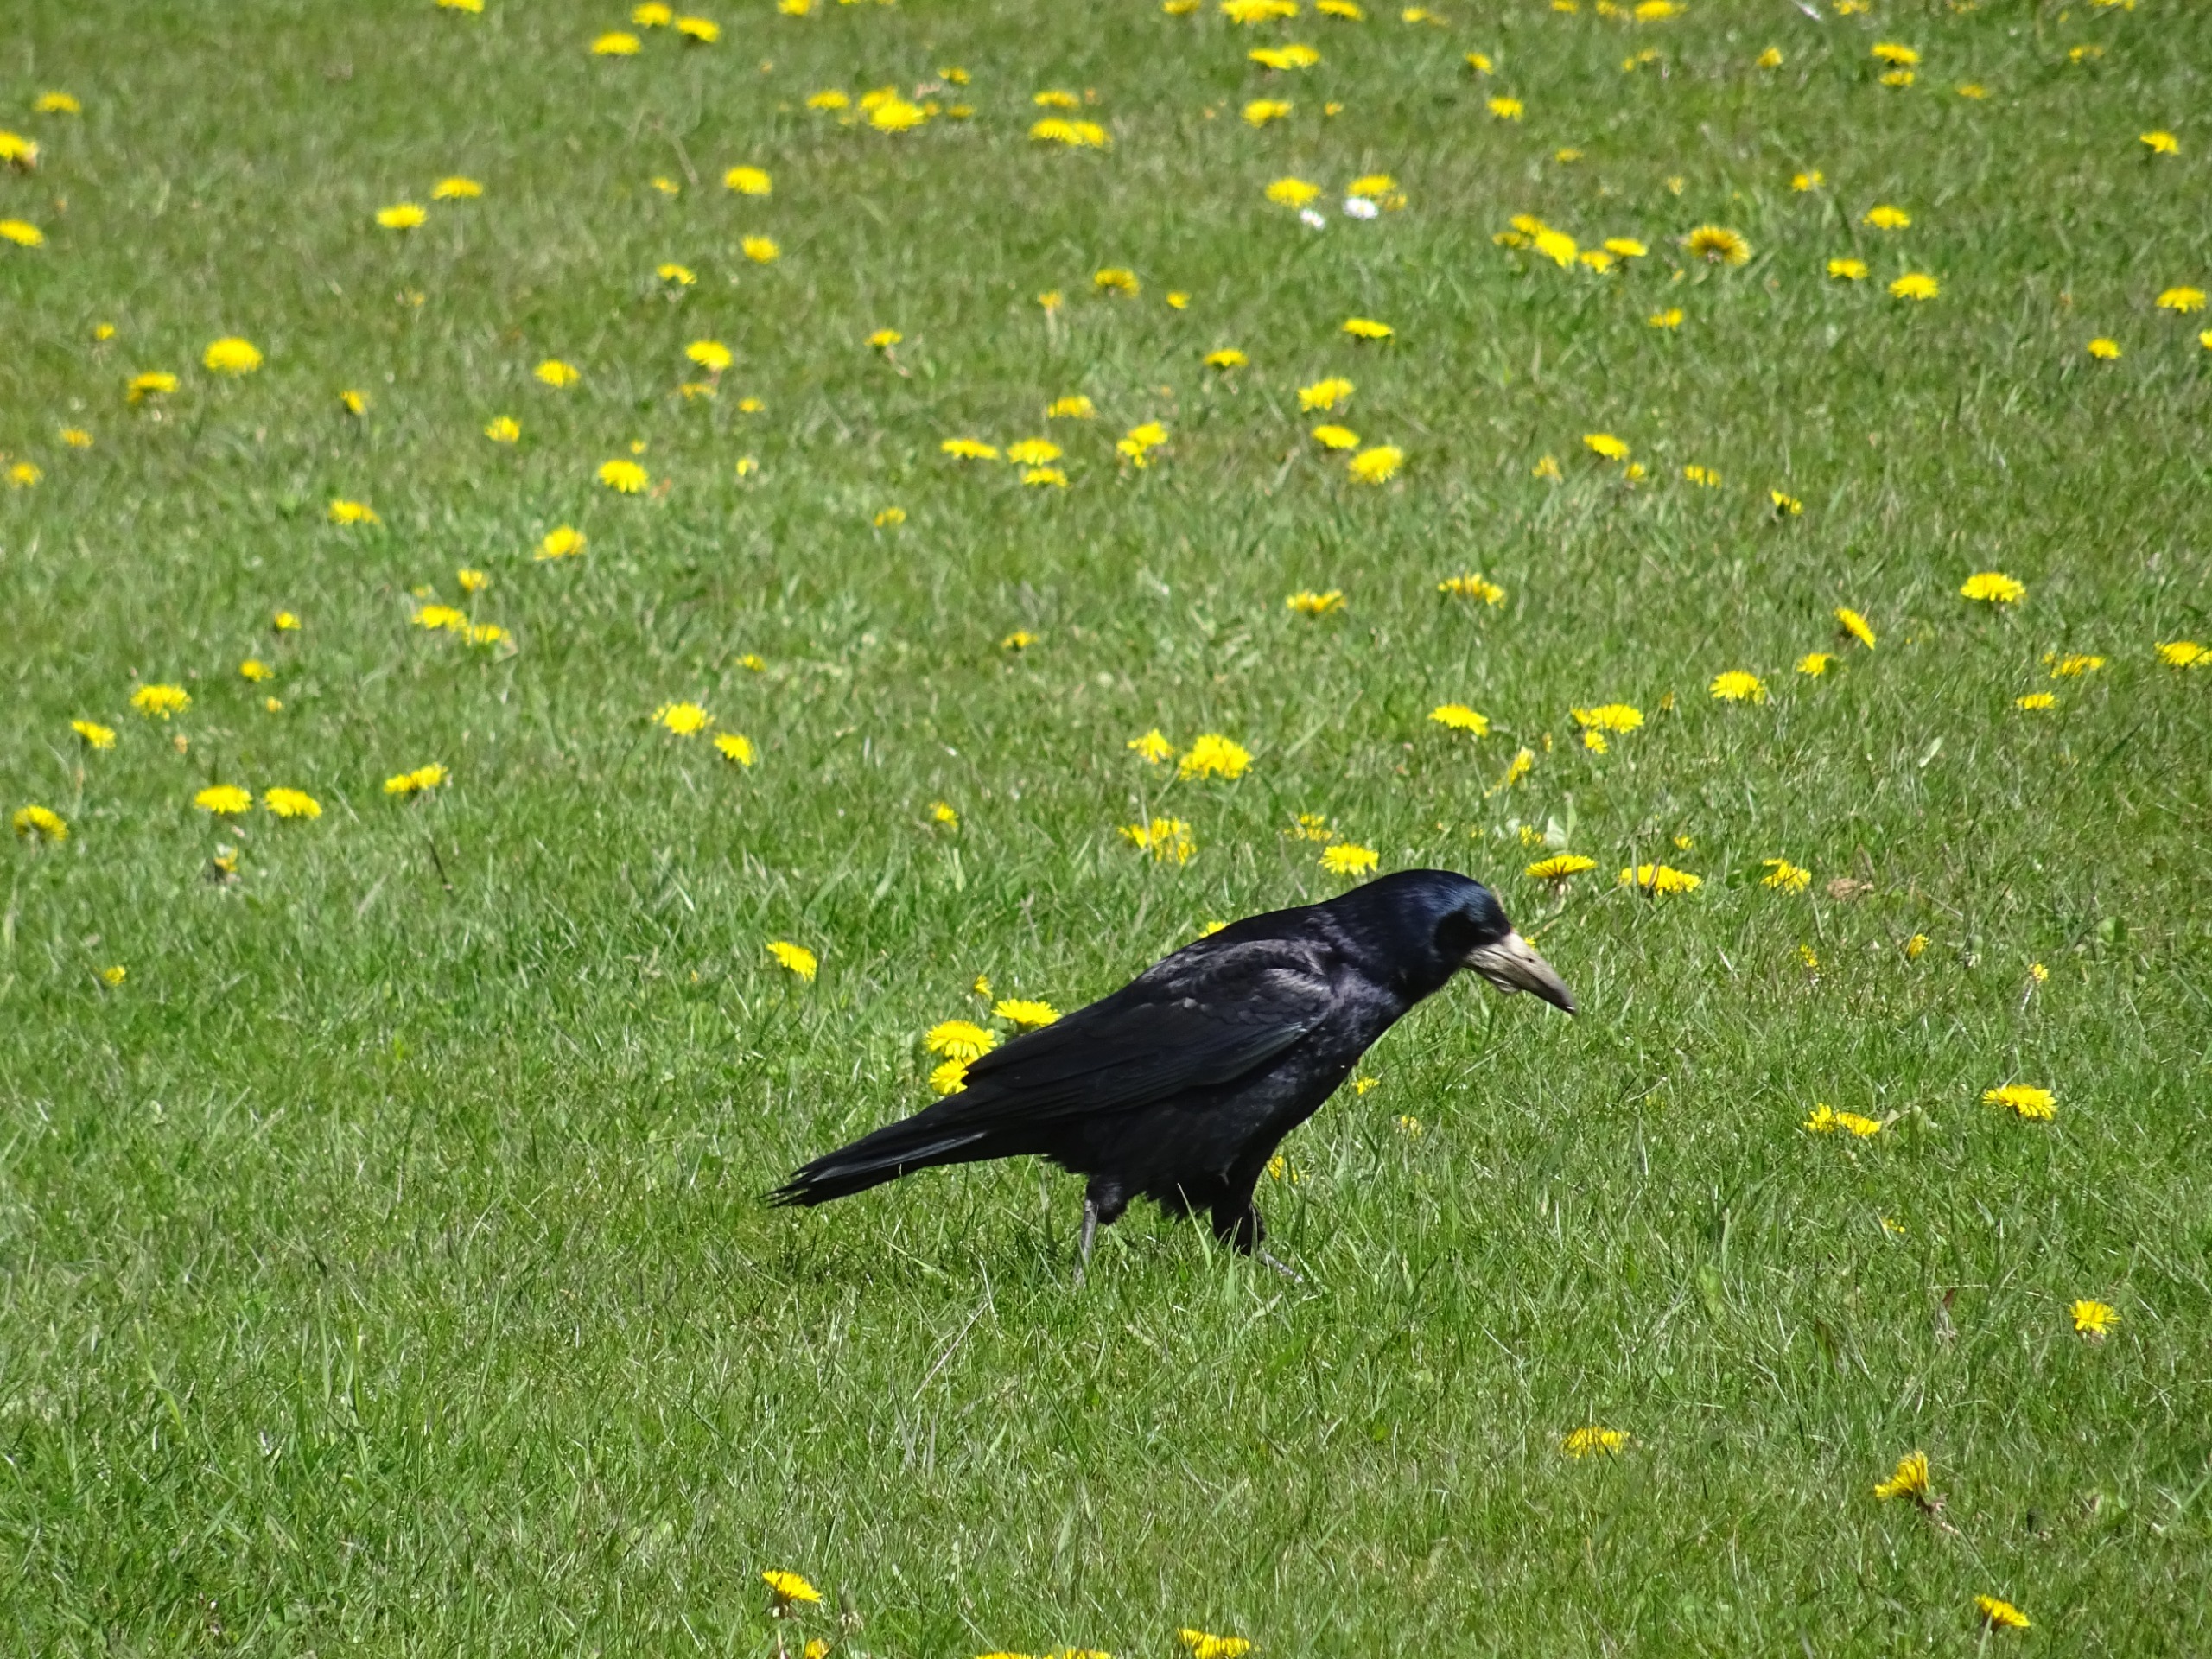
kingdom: Animalia
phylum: Chordata
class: Aves
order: Passeriformes
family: Corvidae
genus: Corvus
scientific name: Corvus frugilegus
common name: Råge
